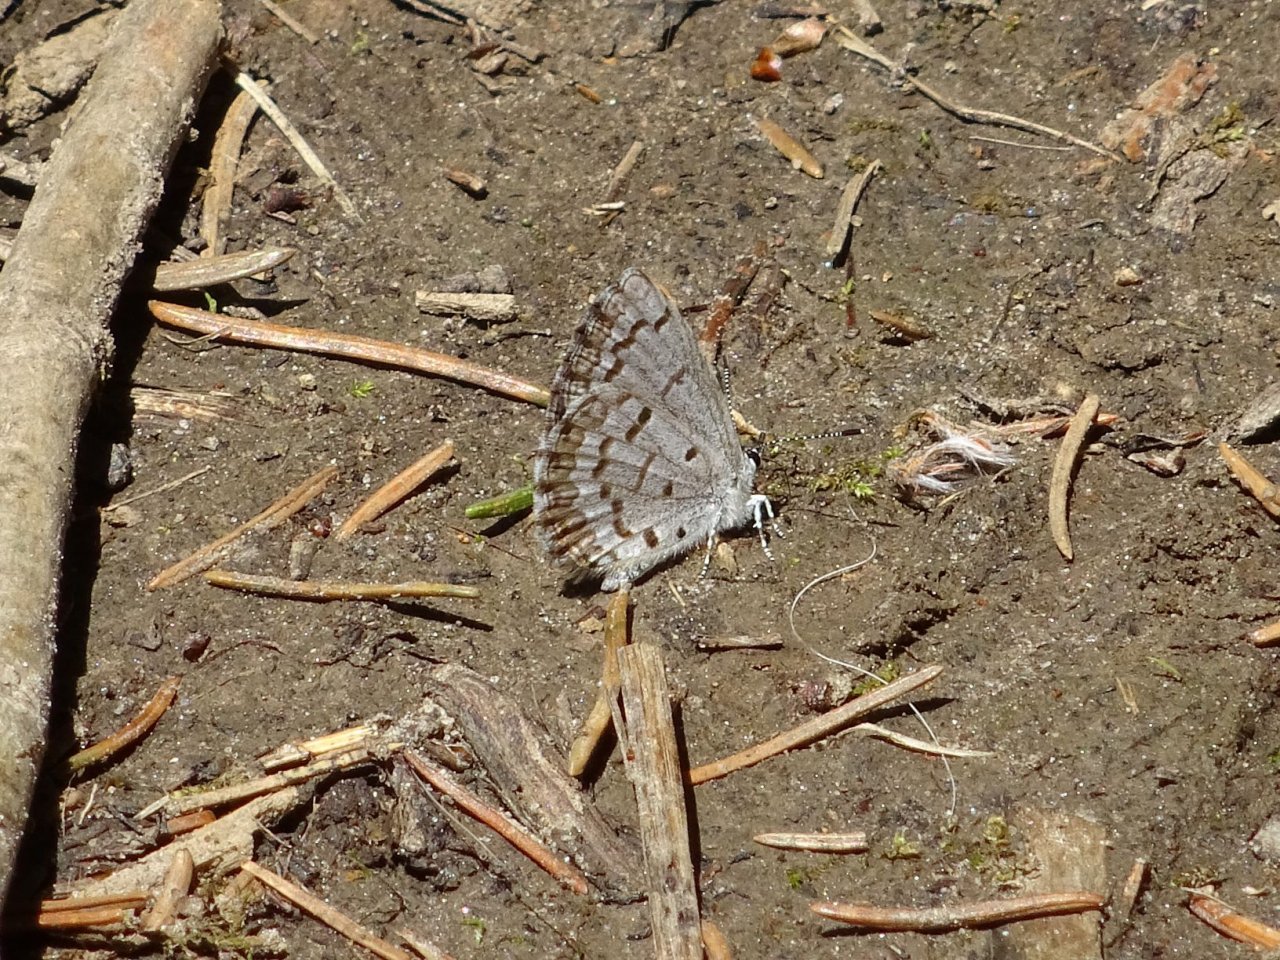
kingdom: Animalia
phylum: Arthropoda
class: Insecta
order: Lepidoptera
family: Lycaenidae
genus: Celastrina
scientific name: Celastrina
